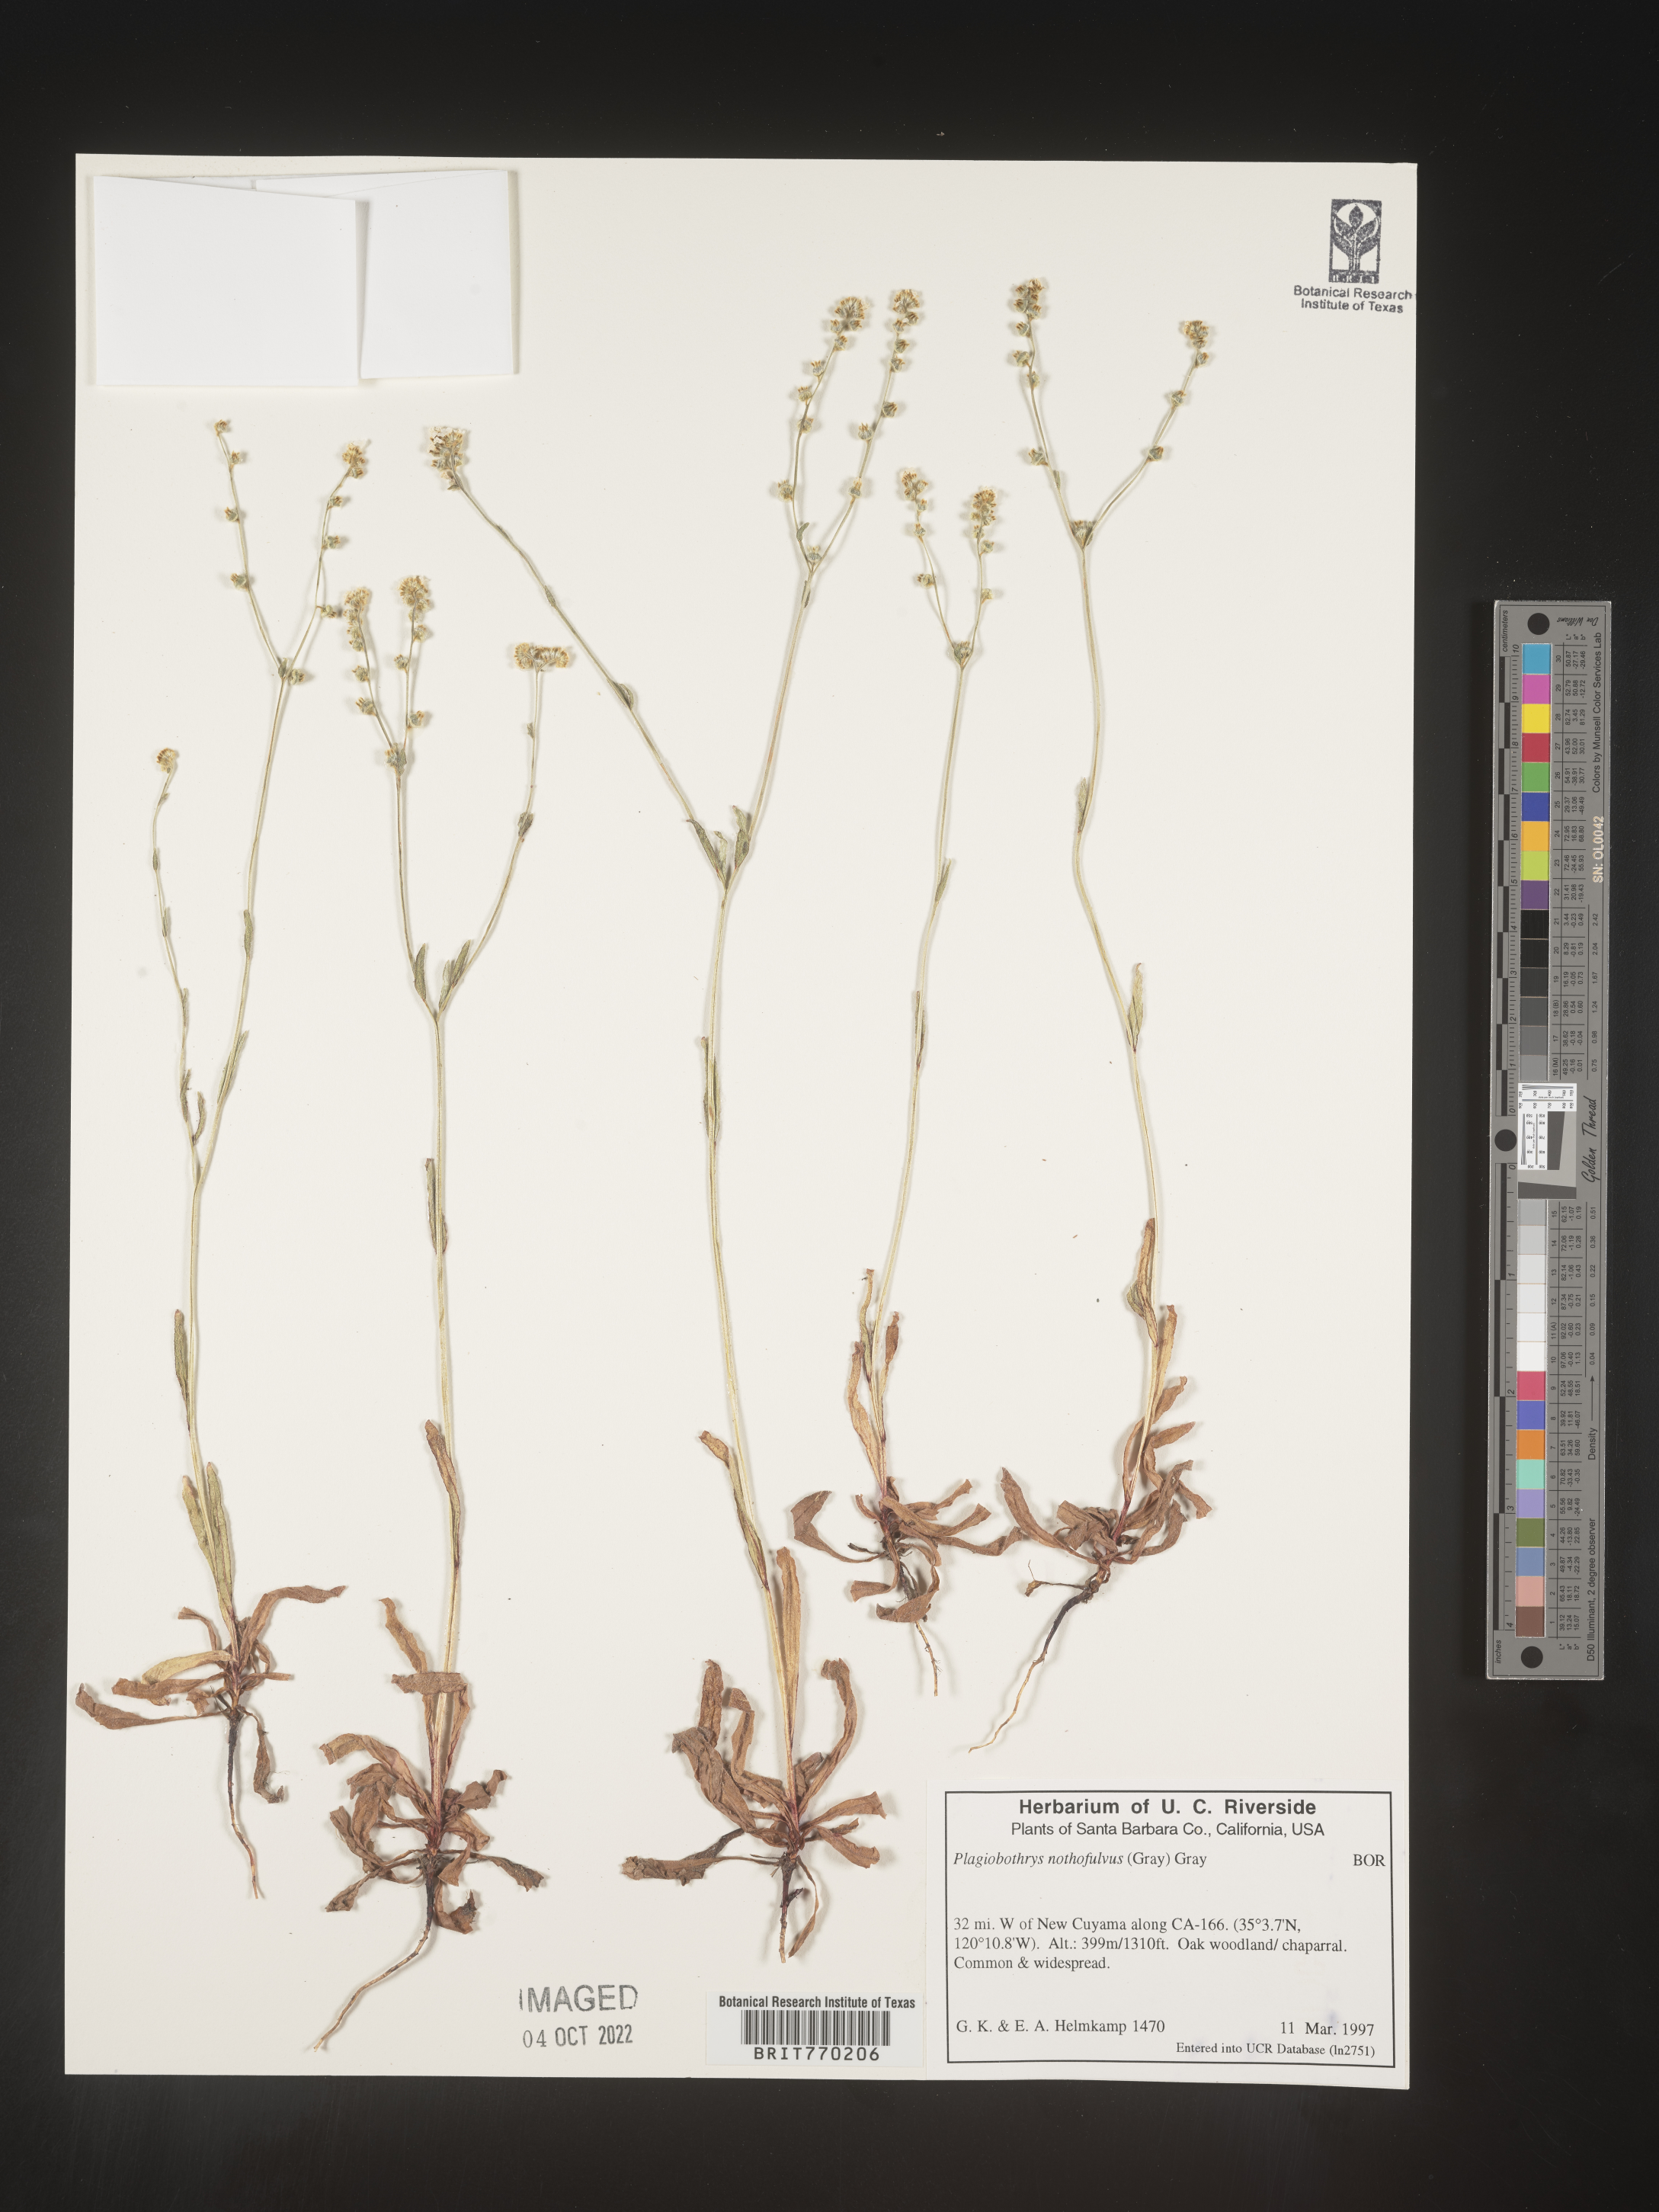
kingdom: Plantae
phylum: Tracheophyta
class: Magnoliopsida
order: Boraginales
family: Boraginaceae
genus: Plagiobothrys
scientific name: Plagiobothrys
